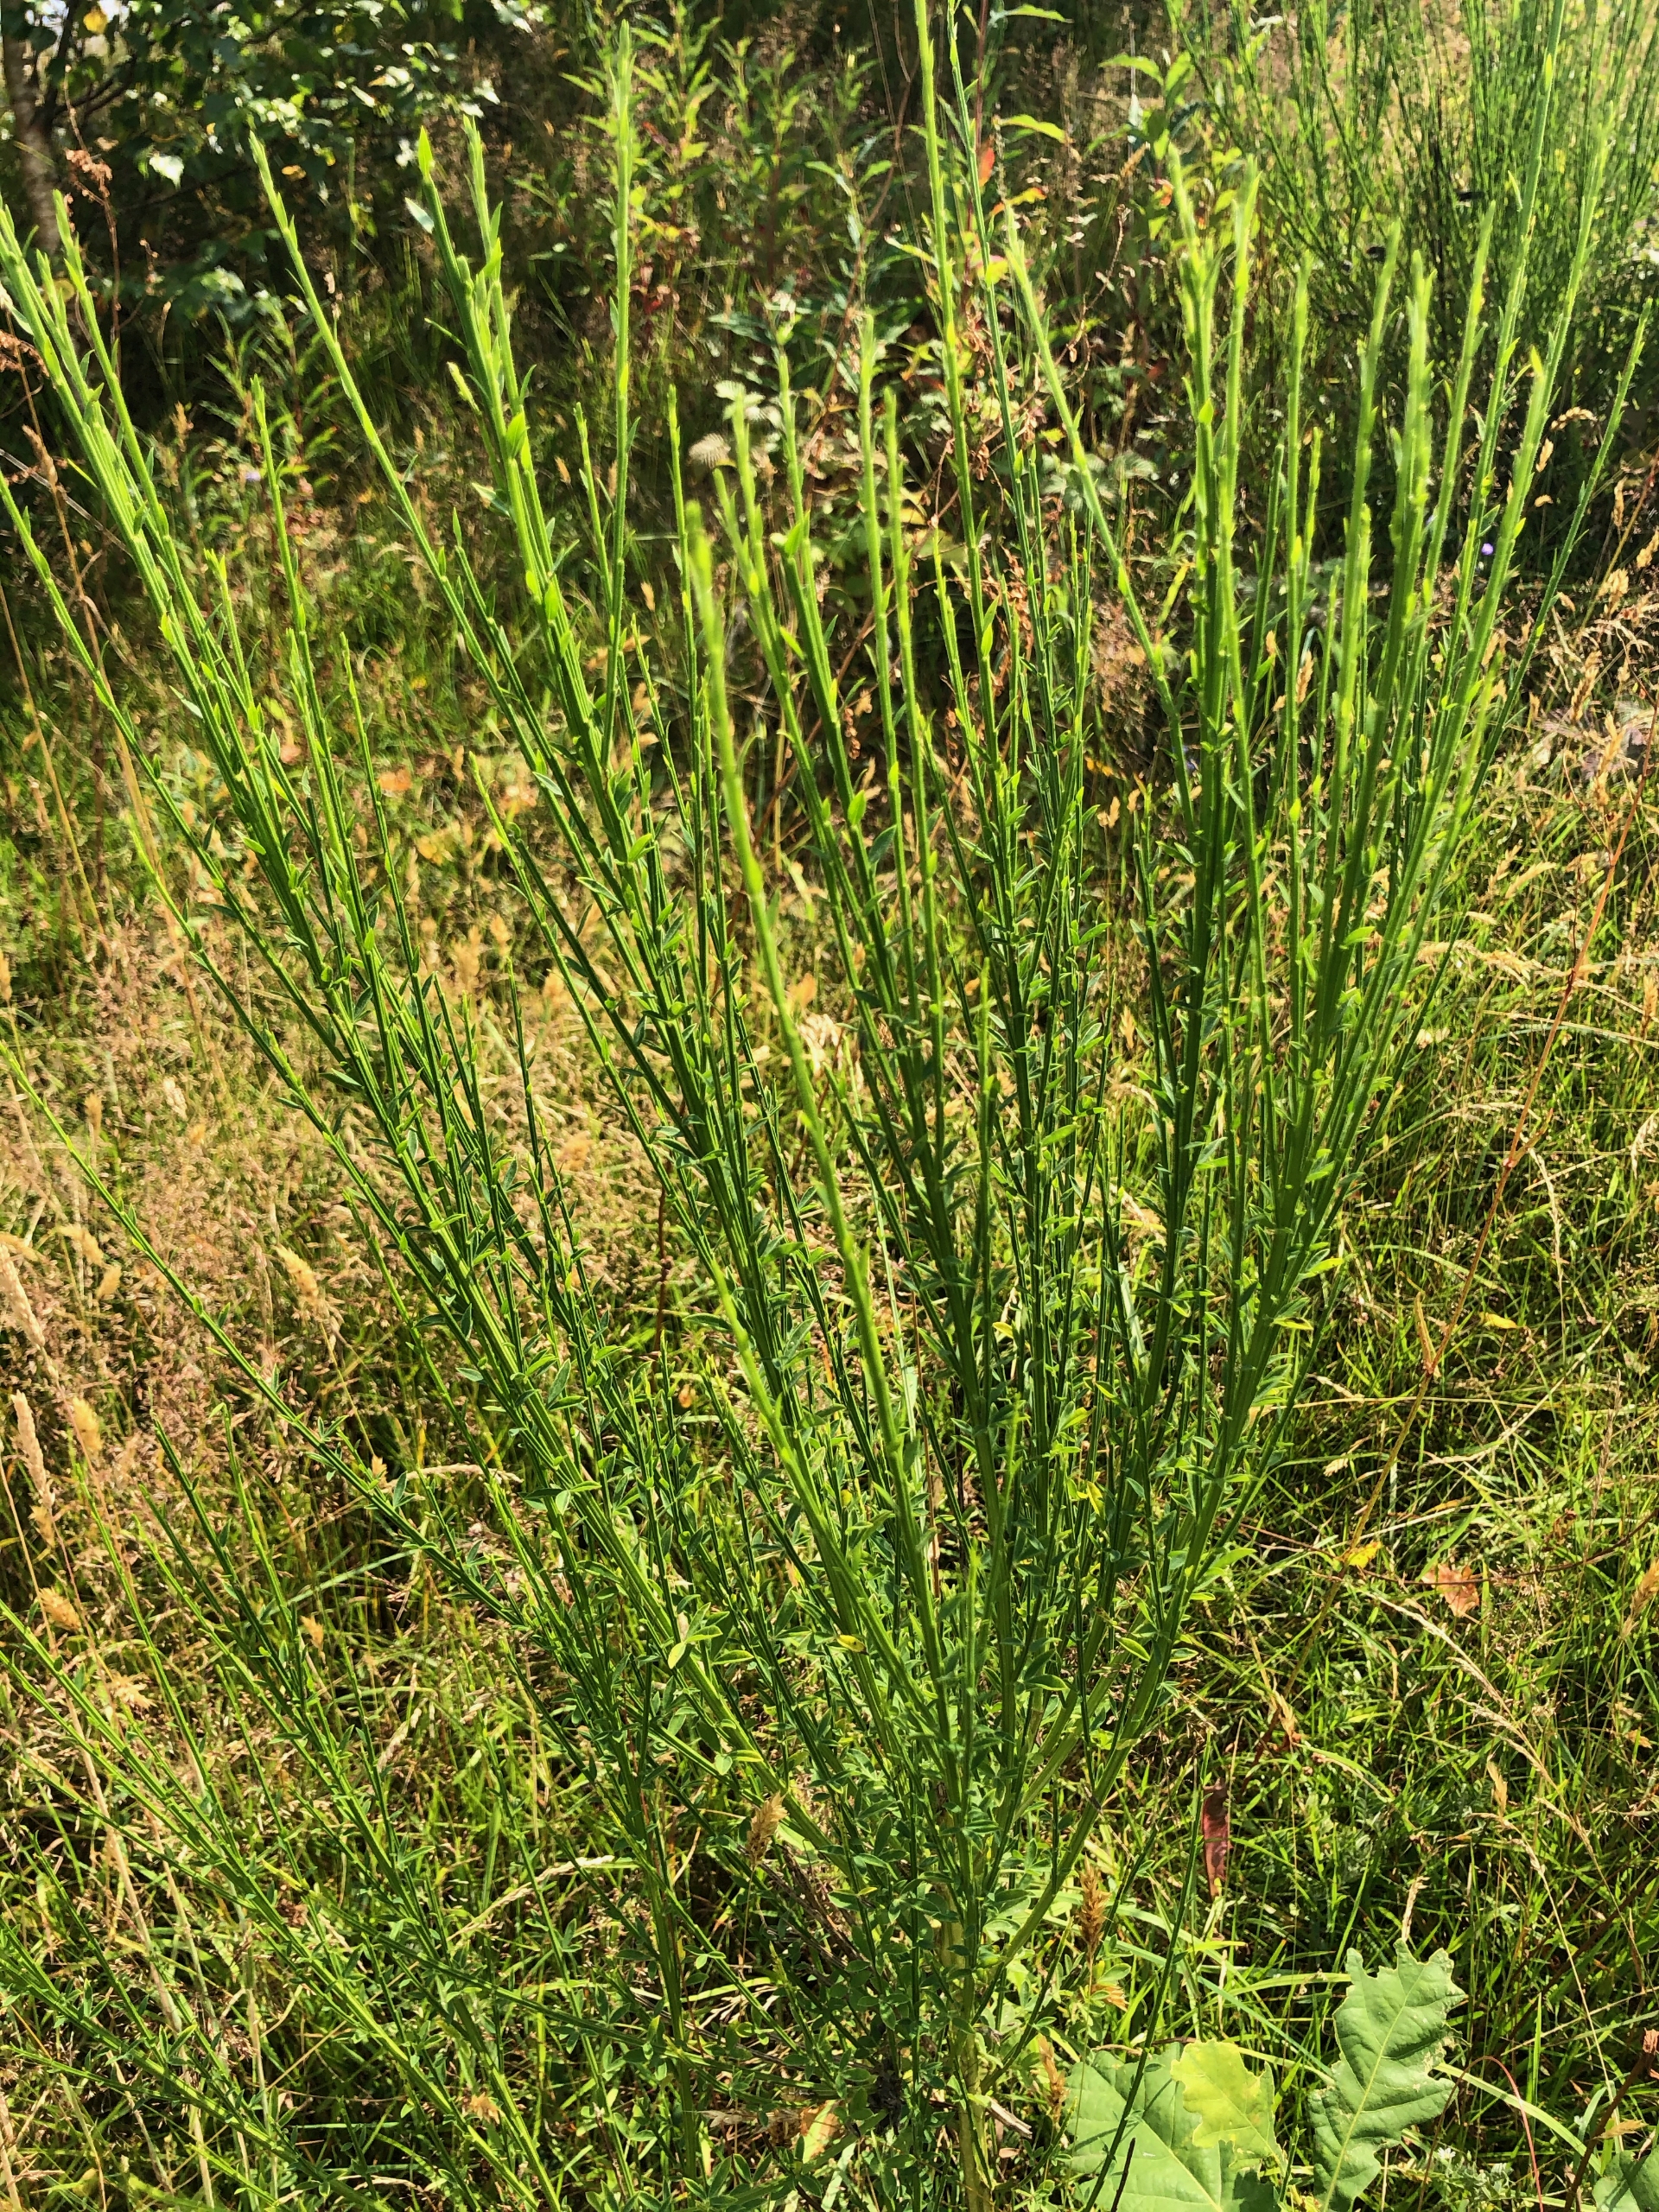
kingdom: Plantae
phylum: Tracheophyta
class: Magnoliopsida
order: Fabales
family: Fabaceae
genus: Cytisus
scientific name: Cytisus scoparius
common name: Almindelig gyvel
